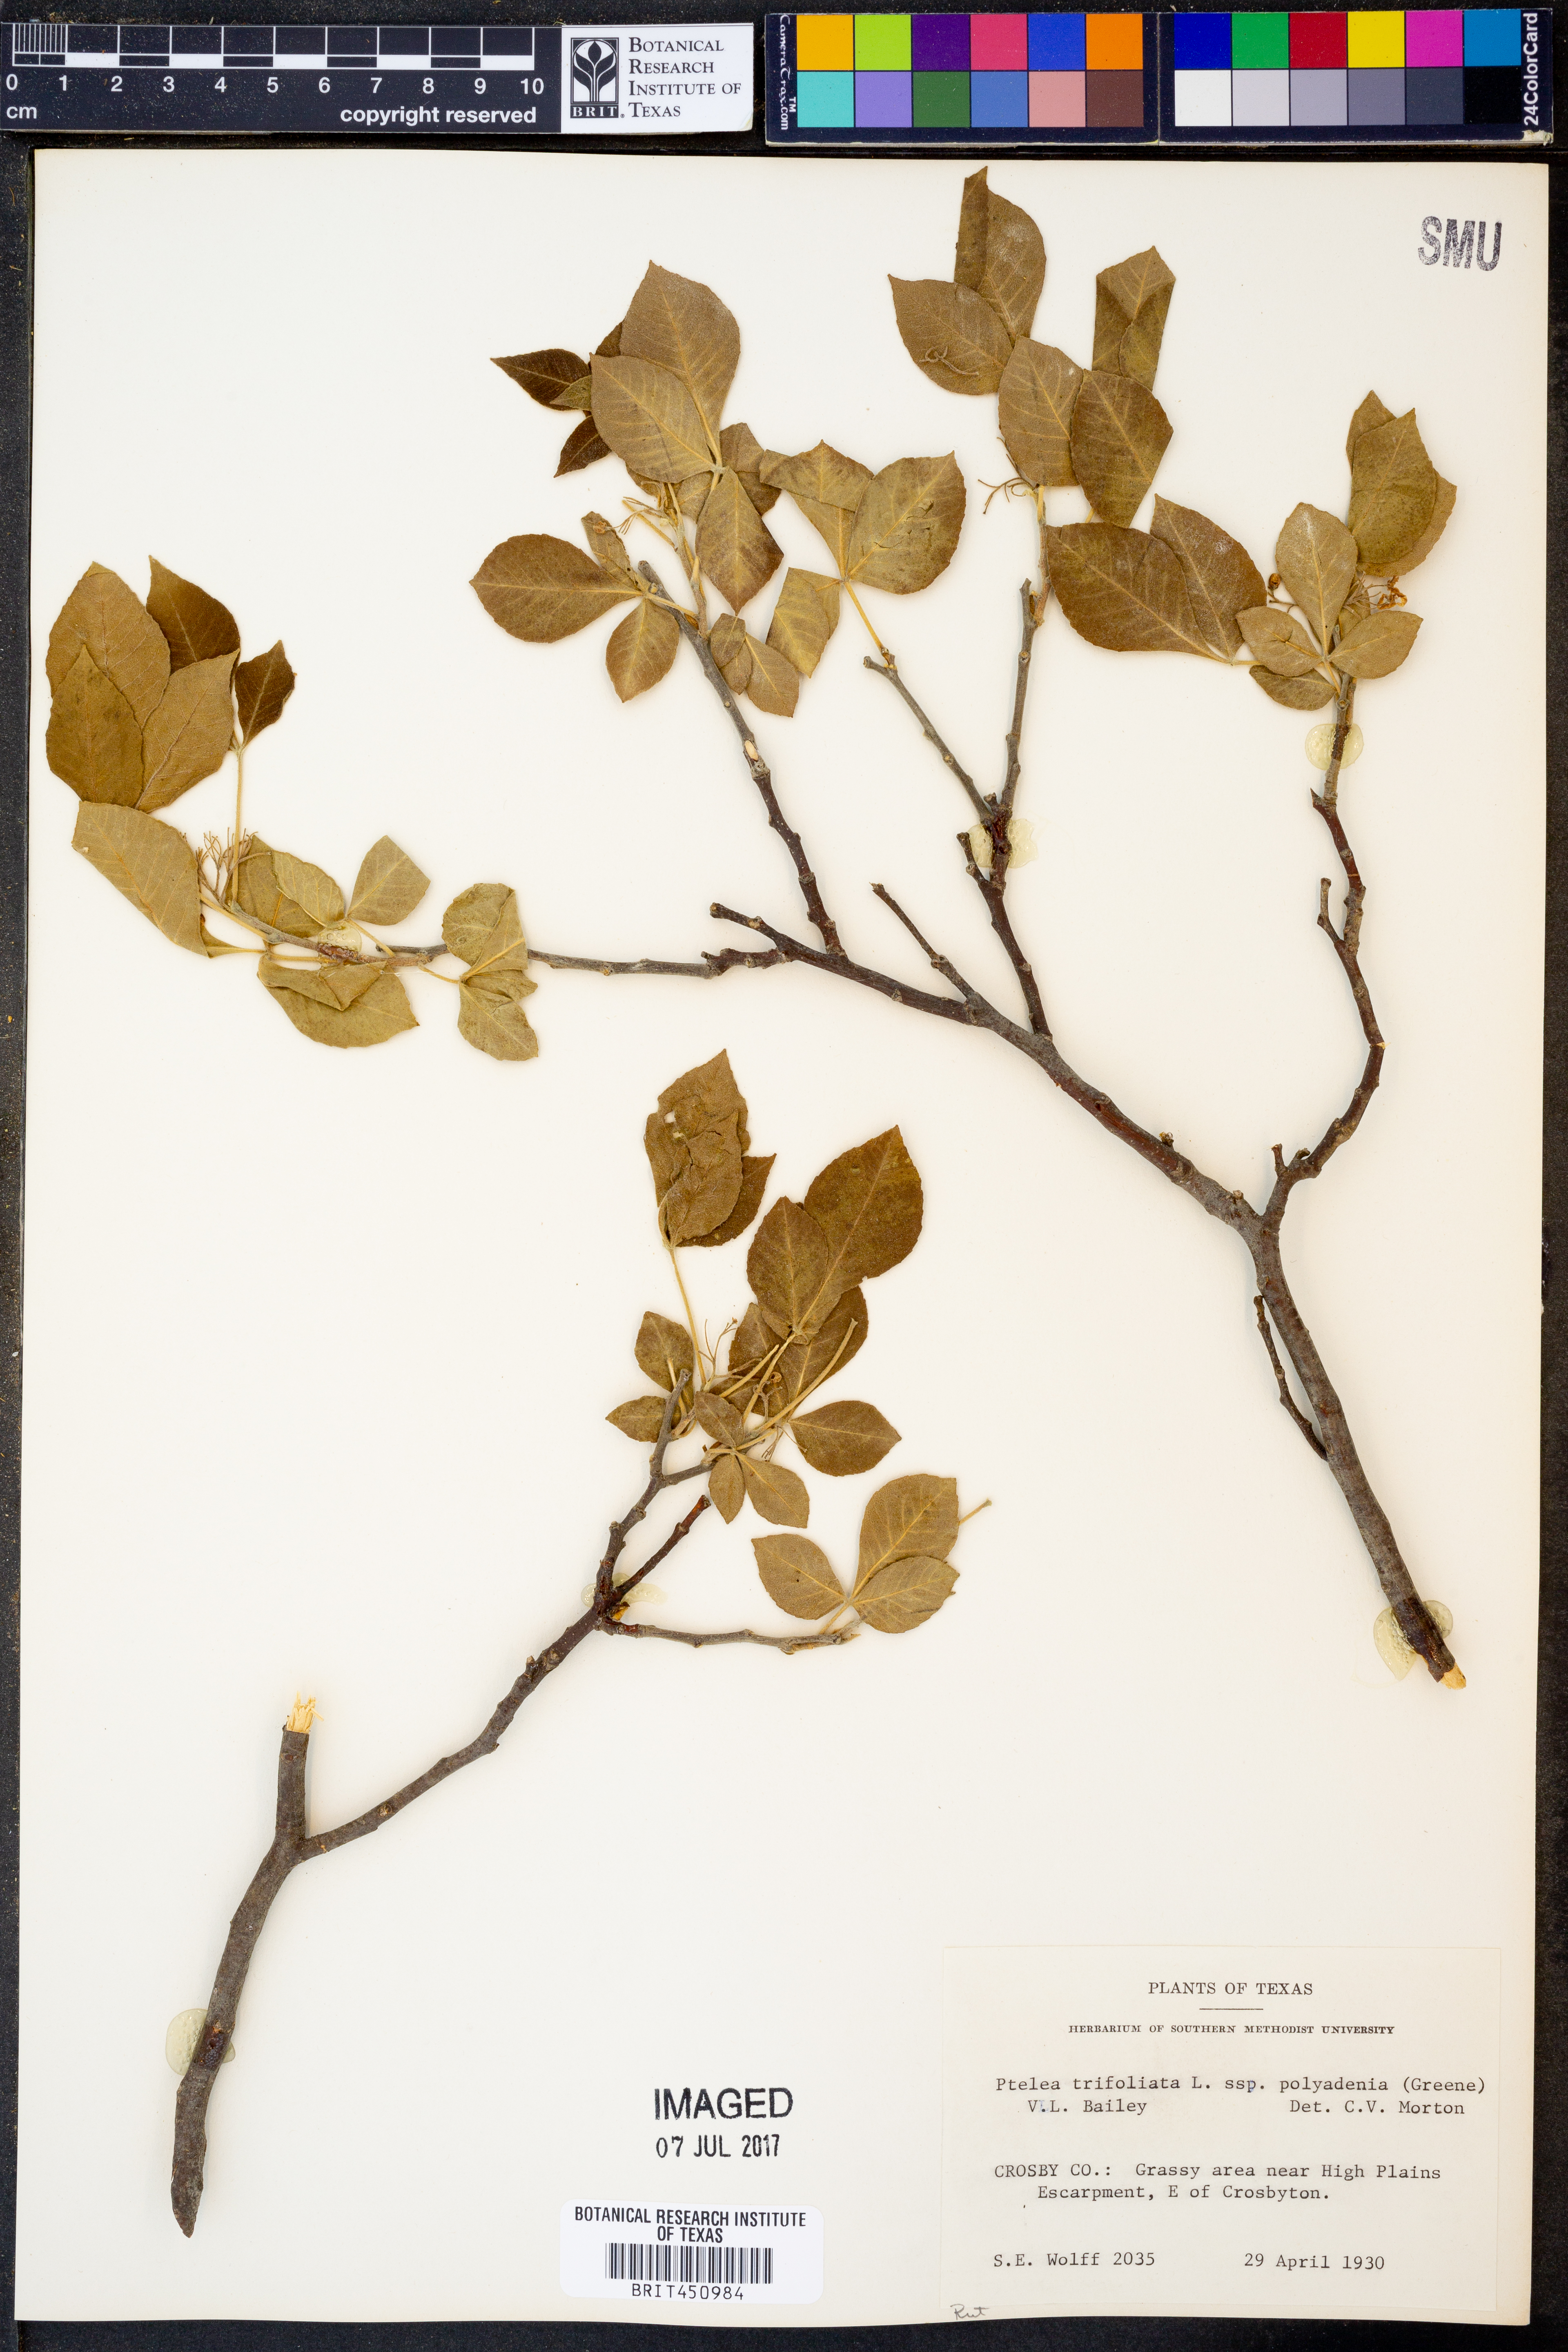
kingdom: Plantae
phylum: Tracheophyta
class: Magnoliopsida
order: Sapindales
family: Rutaceae
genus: Ptelea
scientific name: Ptelea trifoliata
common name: Common hop-tree
